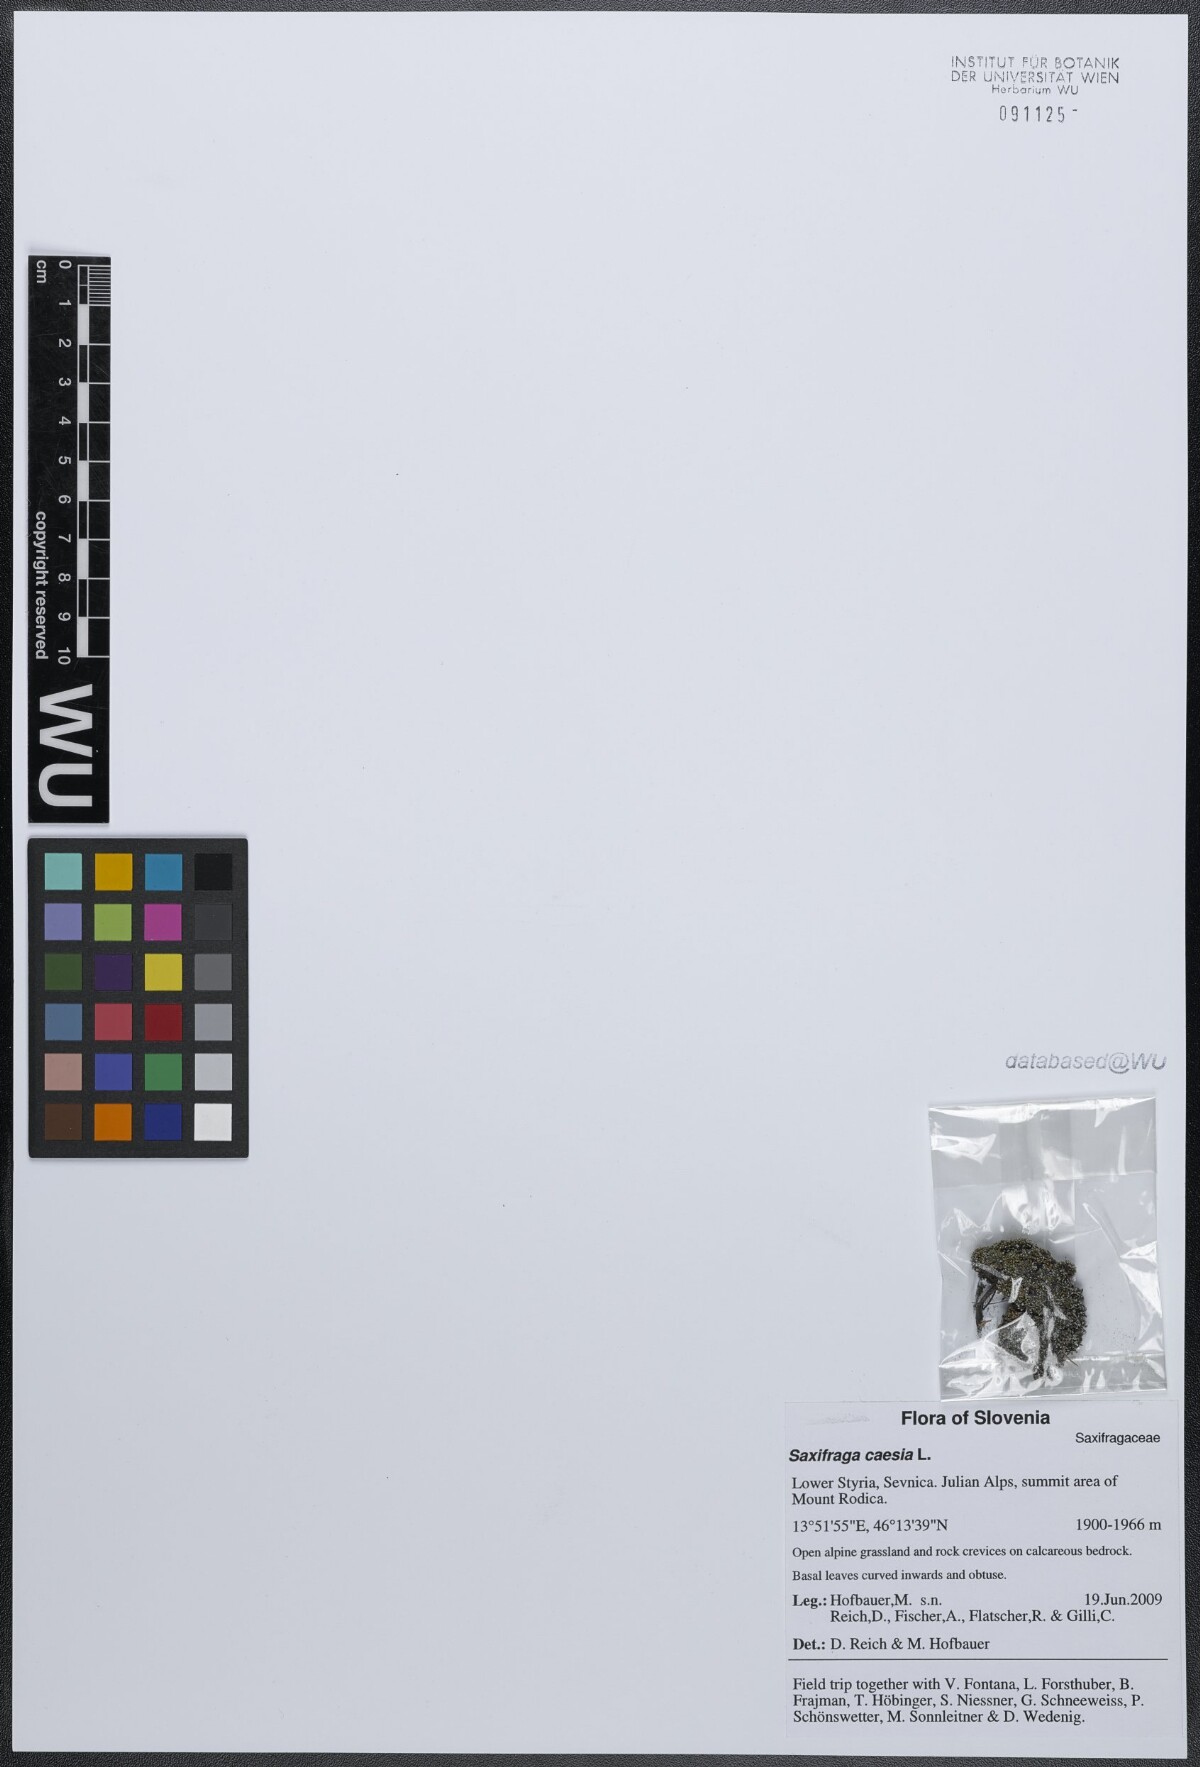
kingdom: Plantae
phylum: Tracheophyta
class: Magnoliopsida
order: Saxifragales
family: Saxifragaceae
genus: Saxifraga
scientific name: Saxifraga caesia
